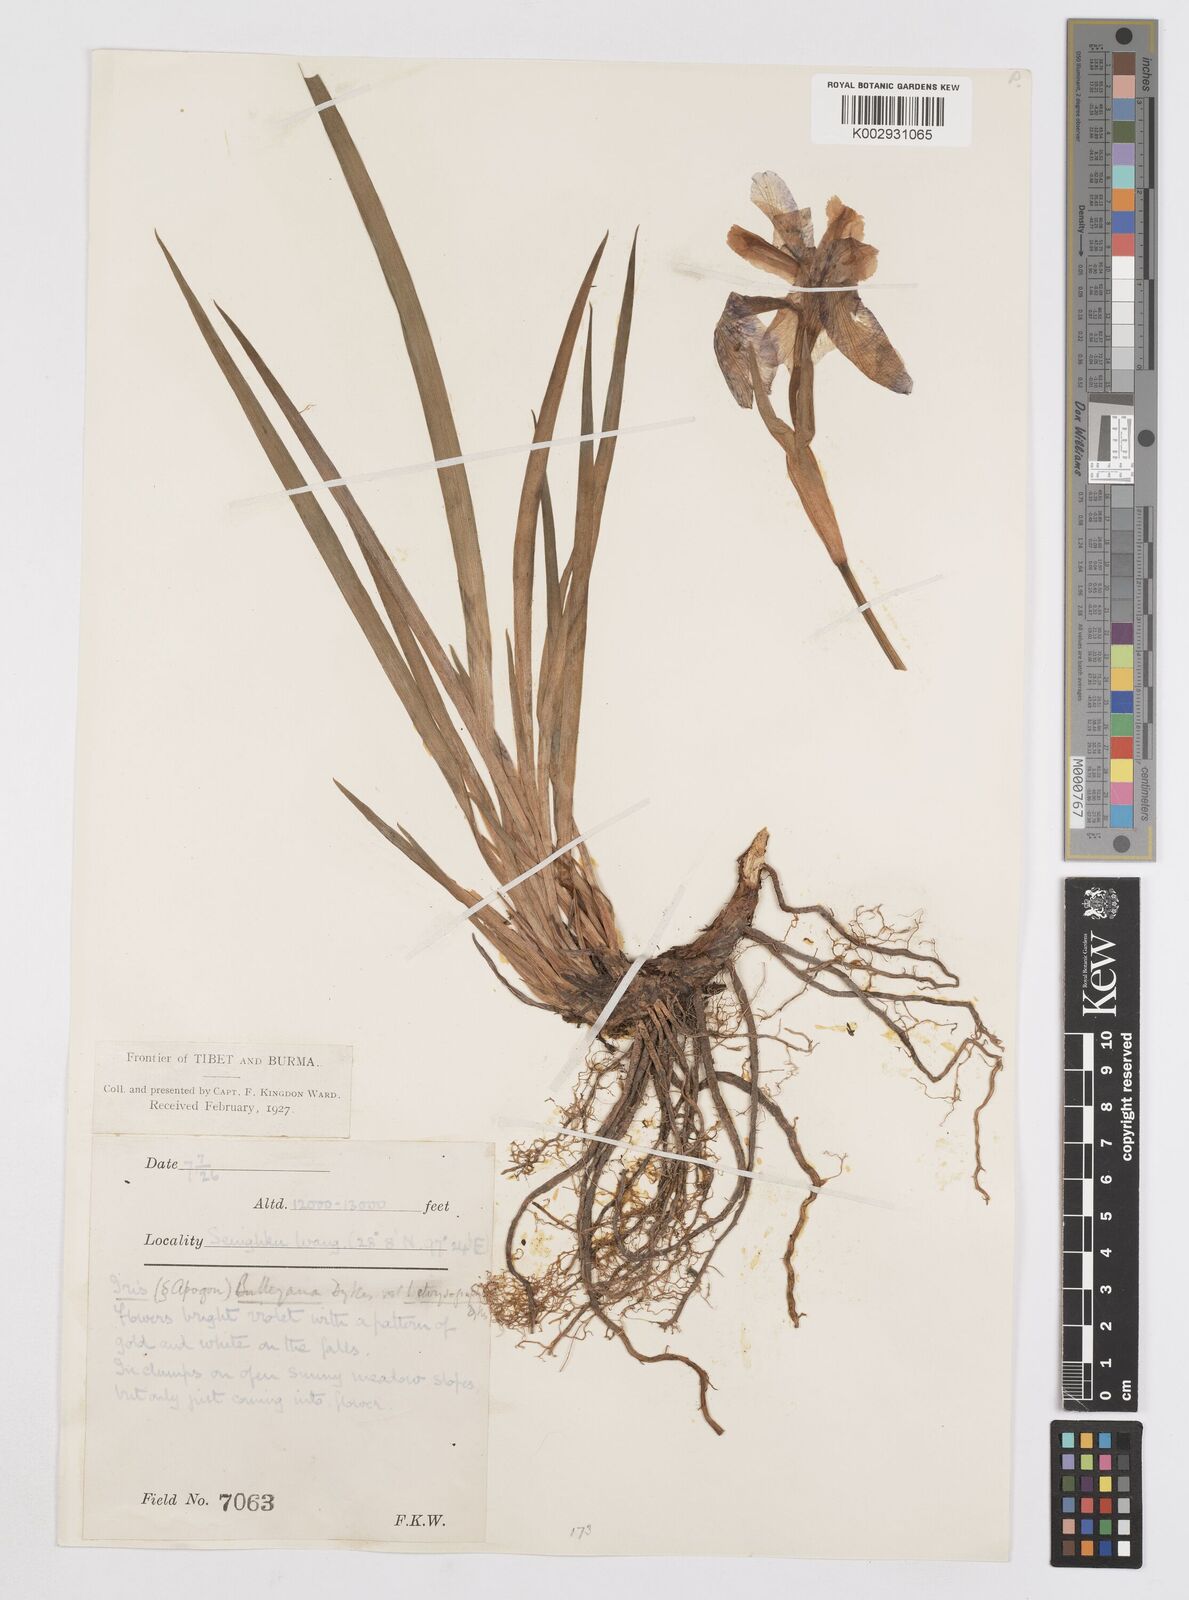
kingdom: Plantae
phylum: Tracheophyta
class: Liliopsida
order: Asparagales
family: Iridaceae
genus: Iris
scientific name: Iris bulleyana
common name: Southwest iris
